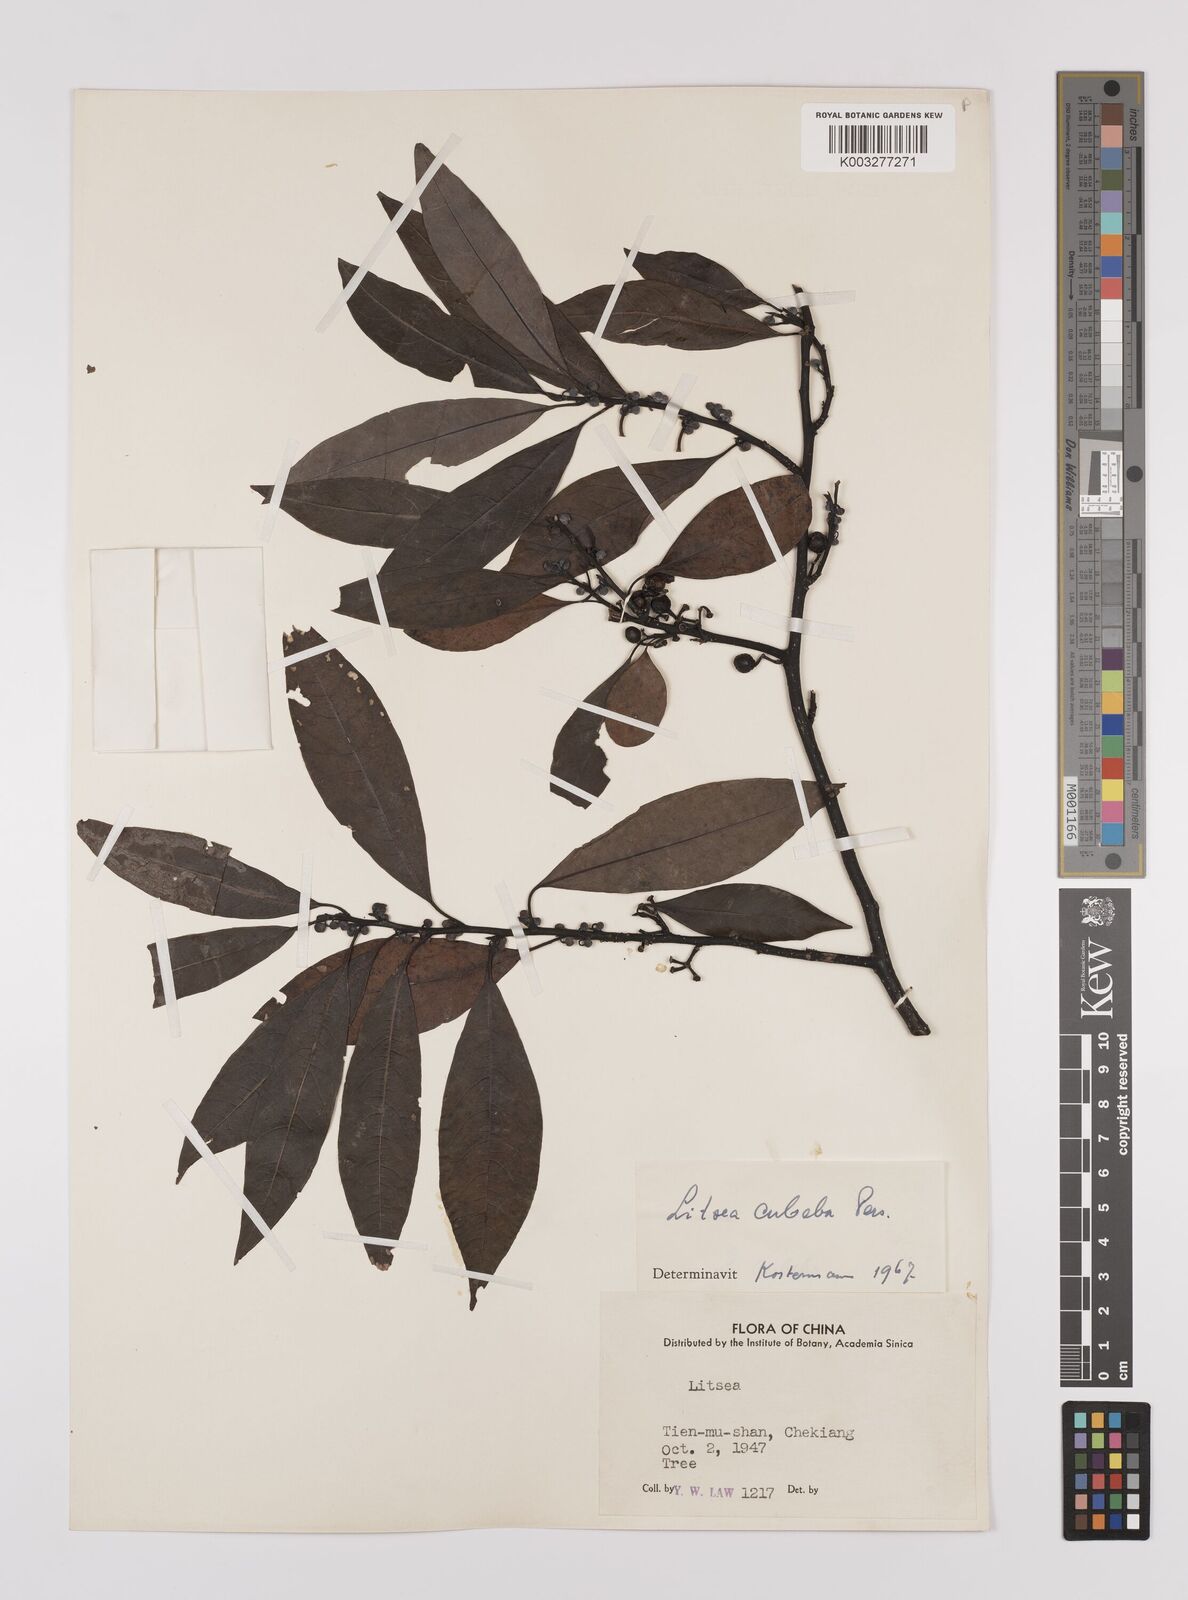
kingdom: Plantae
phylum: Tracheophyta
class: Magnoliopsida
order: Laurales
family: Lauraceae
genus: Litsea
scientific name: Litsea cubeba
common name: Mountain-pepper
